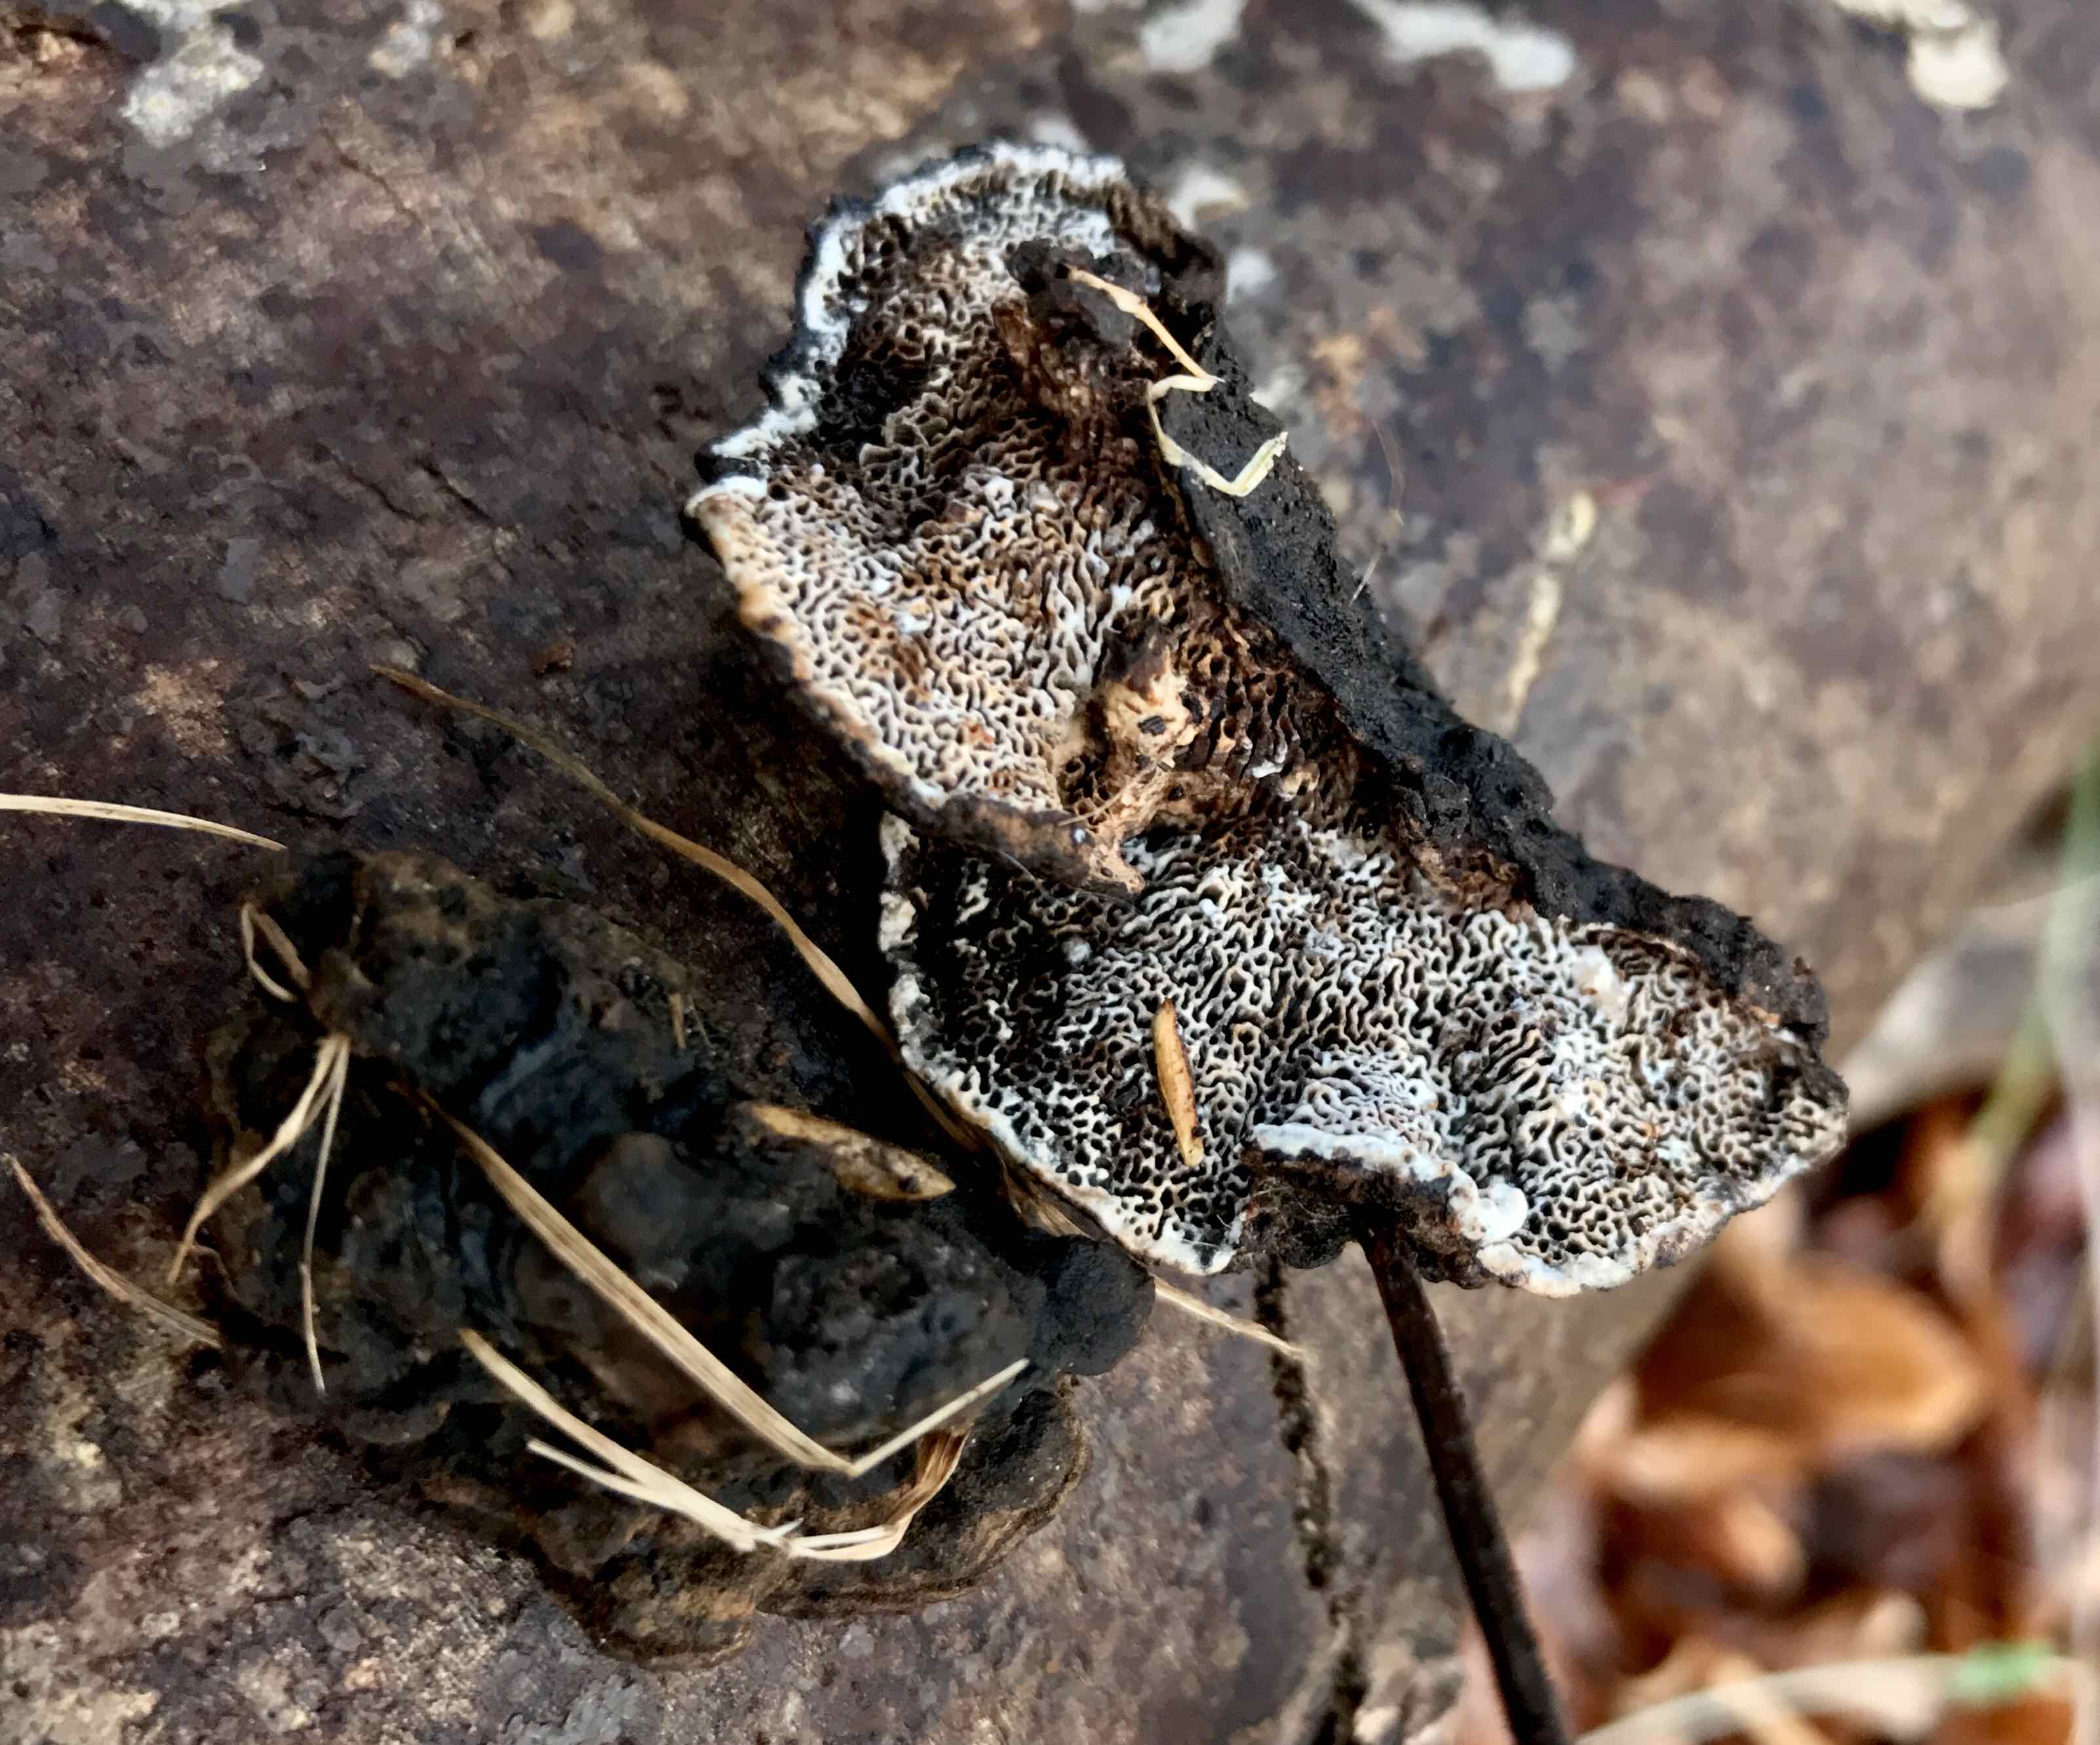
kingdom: Fungi
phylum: Basidiomycota
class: Agaricomycetes
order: Polyporales
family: Polyporaceae
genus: Podofomes
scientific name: Podofomes mollis
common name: blød begporesvamp
